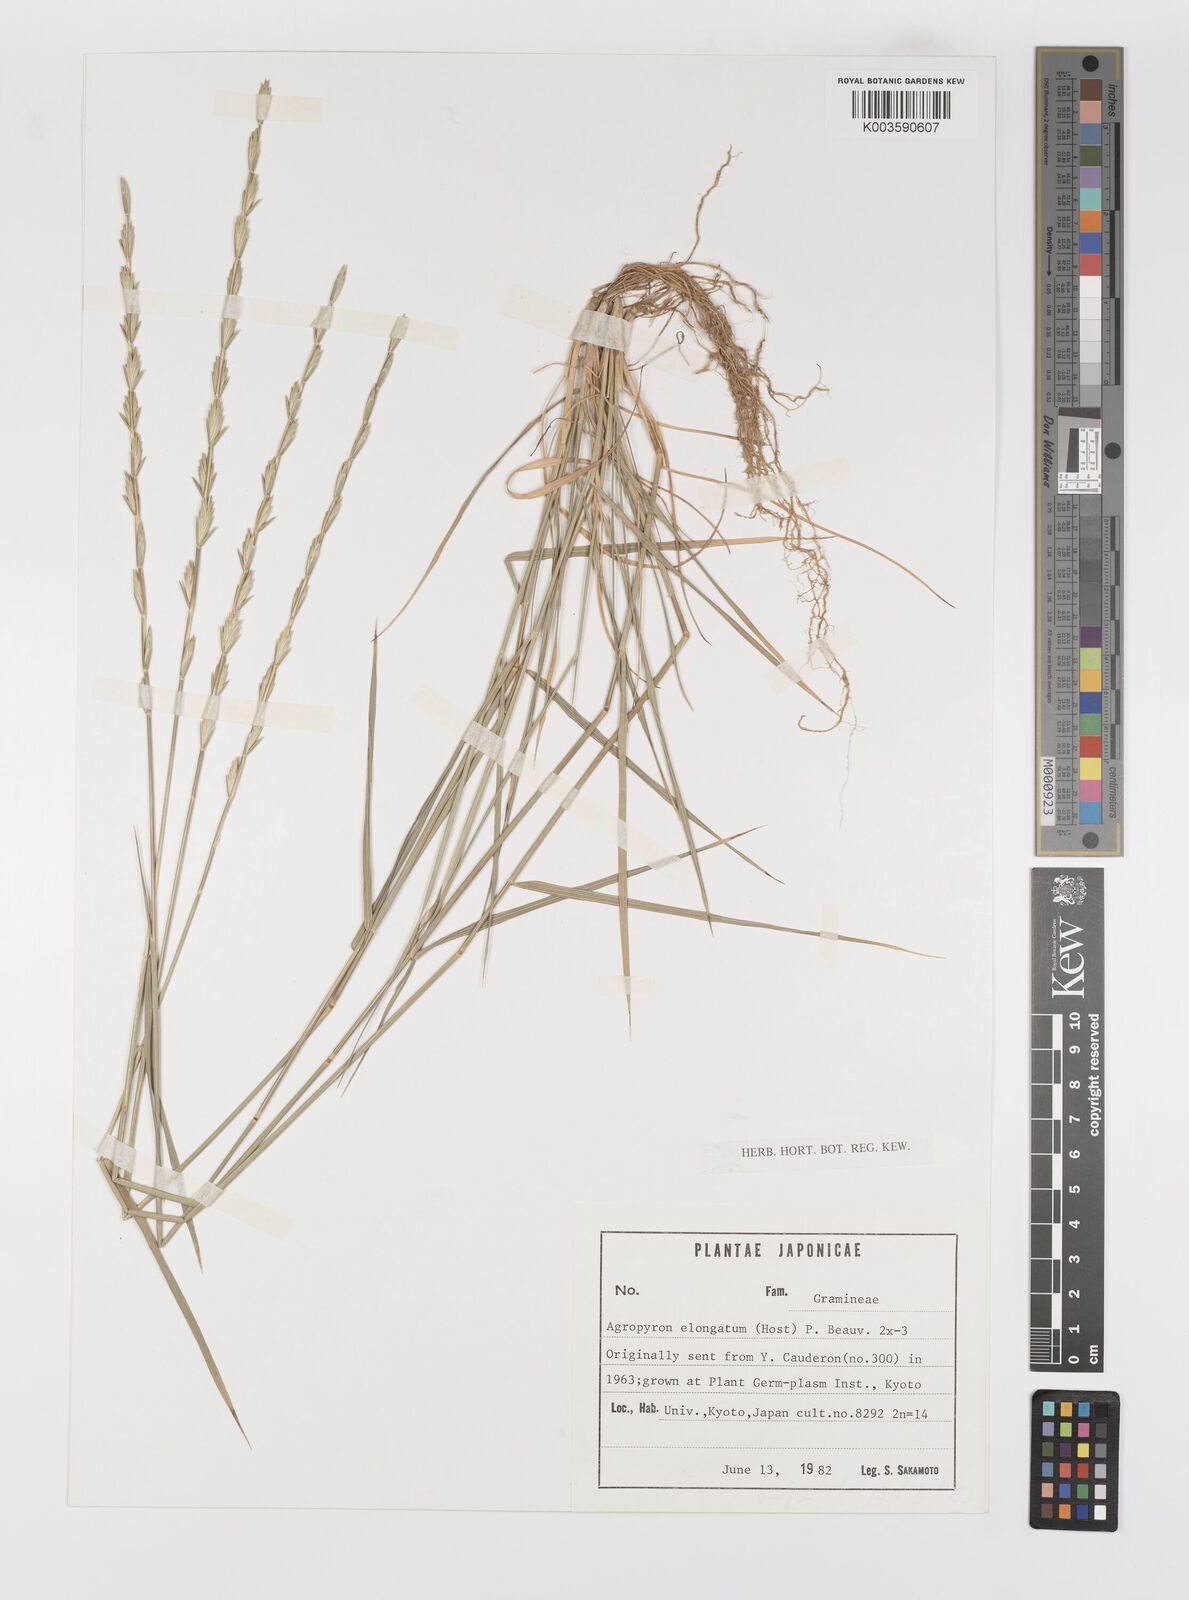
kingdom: Plantae
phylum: Tracheophyta
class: Liliopsida
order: Poales
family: Poaceae
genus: Thinopyrum
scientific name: Thinopyrum elongatum
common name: Tall wheatgrass
